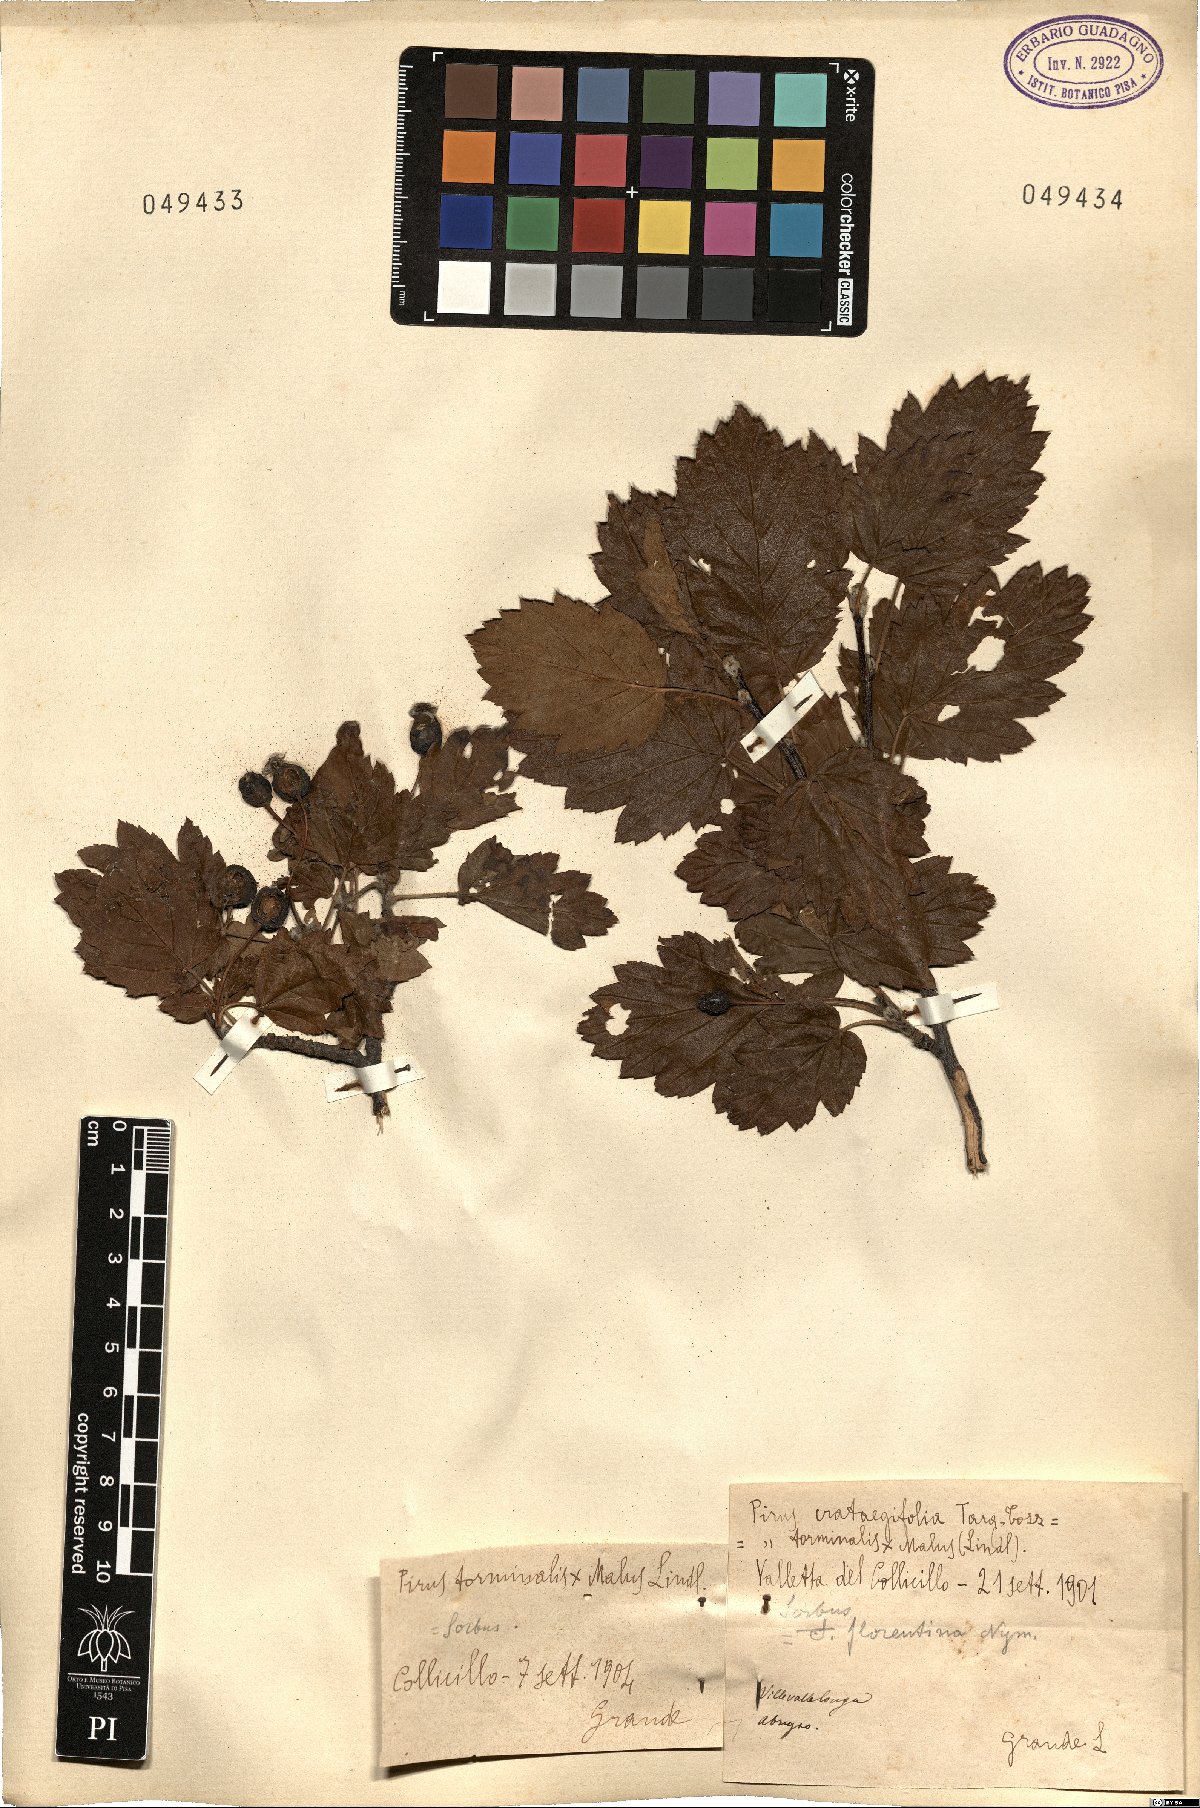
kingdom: Plantae
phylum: Tracheophyta
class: Magnoliopsida
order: Rosales
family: Rosaceae
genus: Tormimalus
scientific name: Tormimalus florentina
